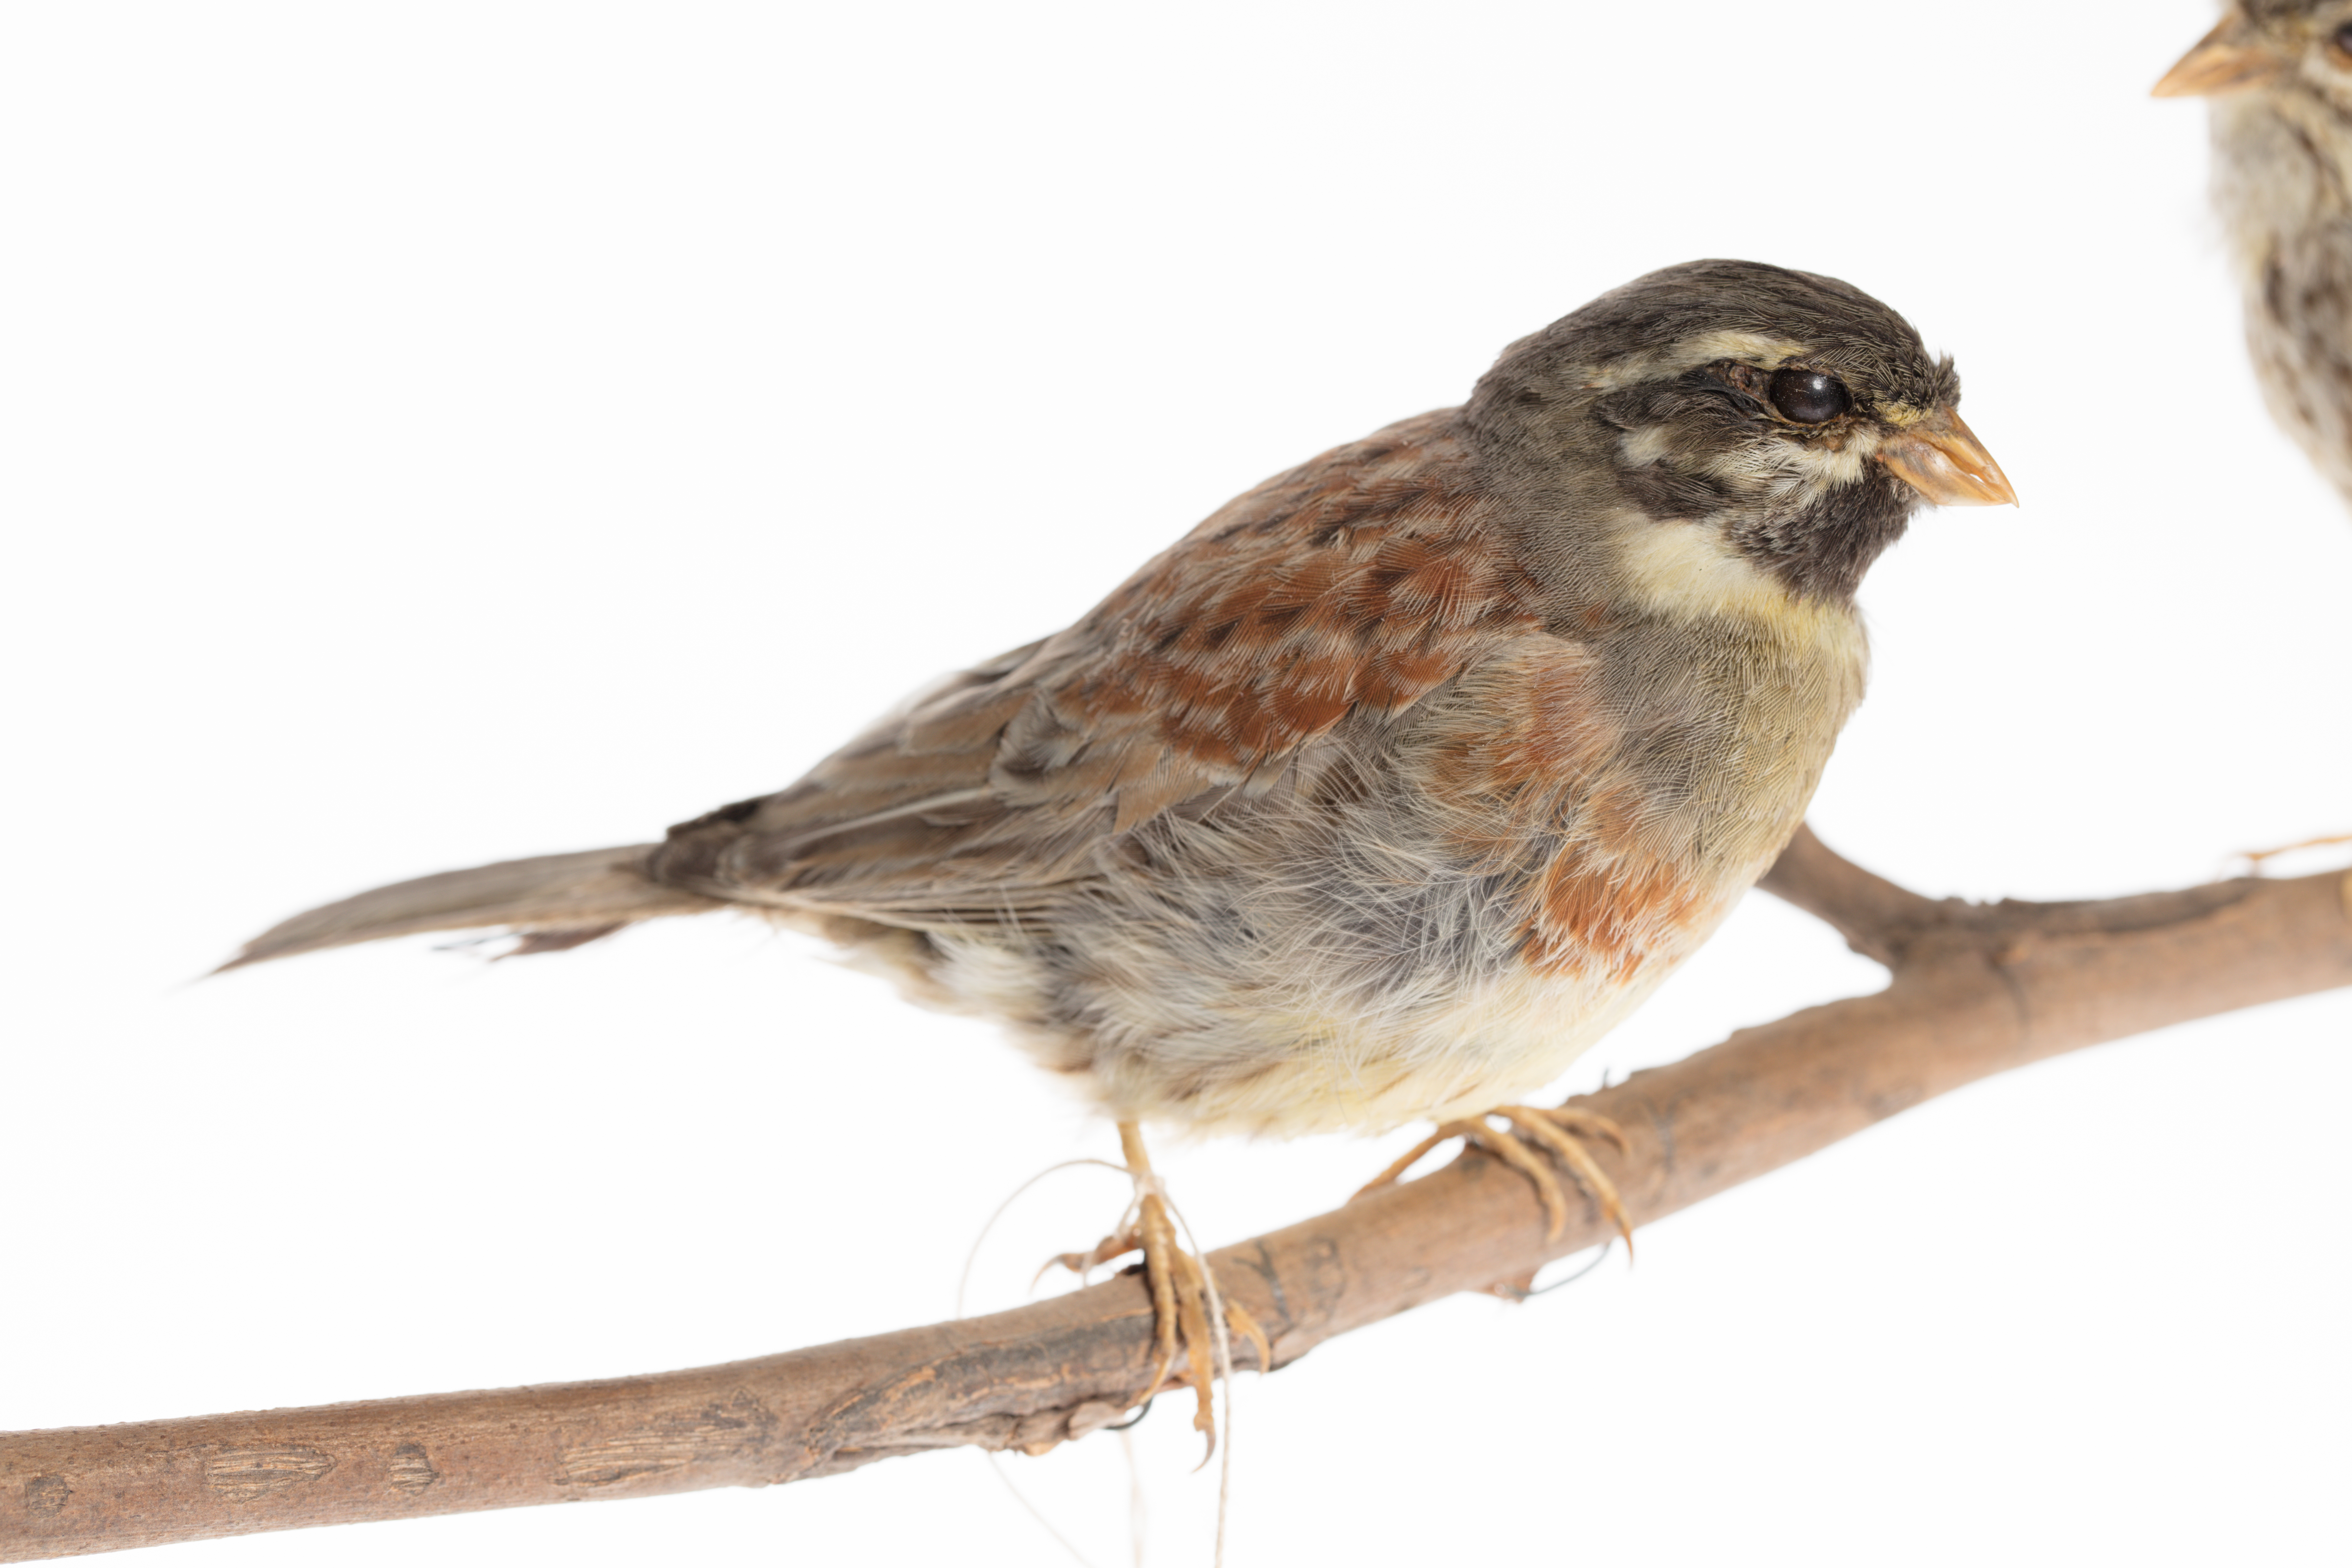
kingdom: Animalia
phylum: Chordata
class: Aves
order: Passeriformes
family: Emberizidae
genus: Emberiza
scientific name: Emberiza cirlus
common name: Cirl bunting
